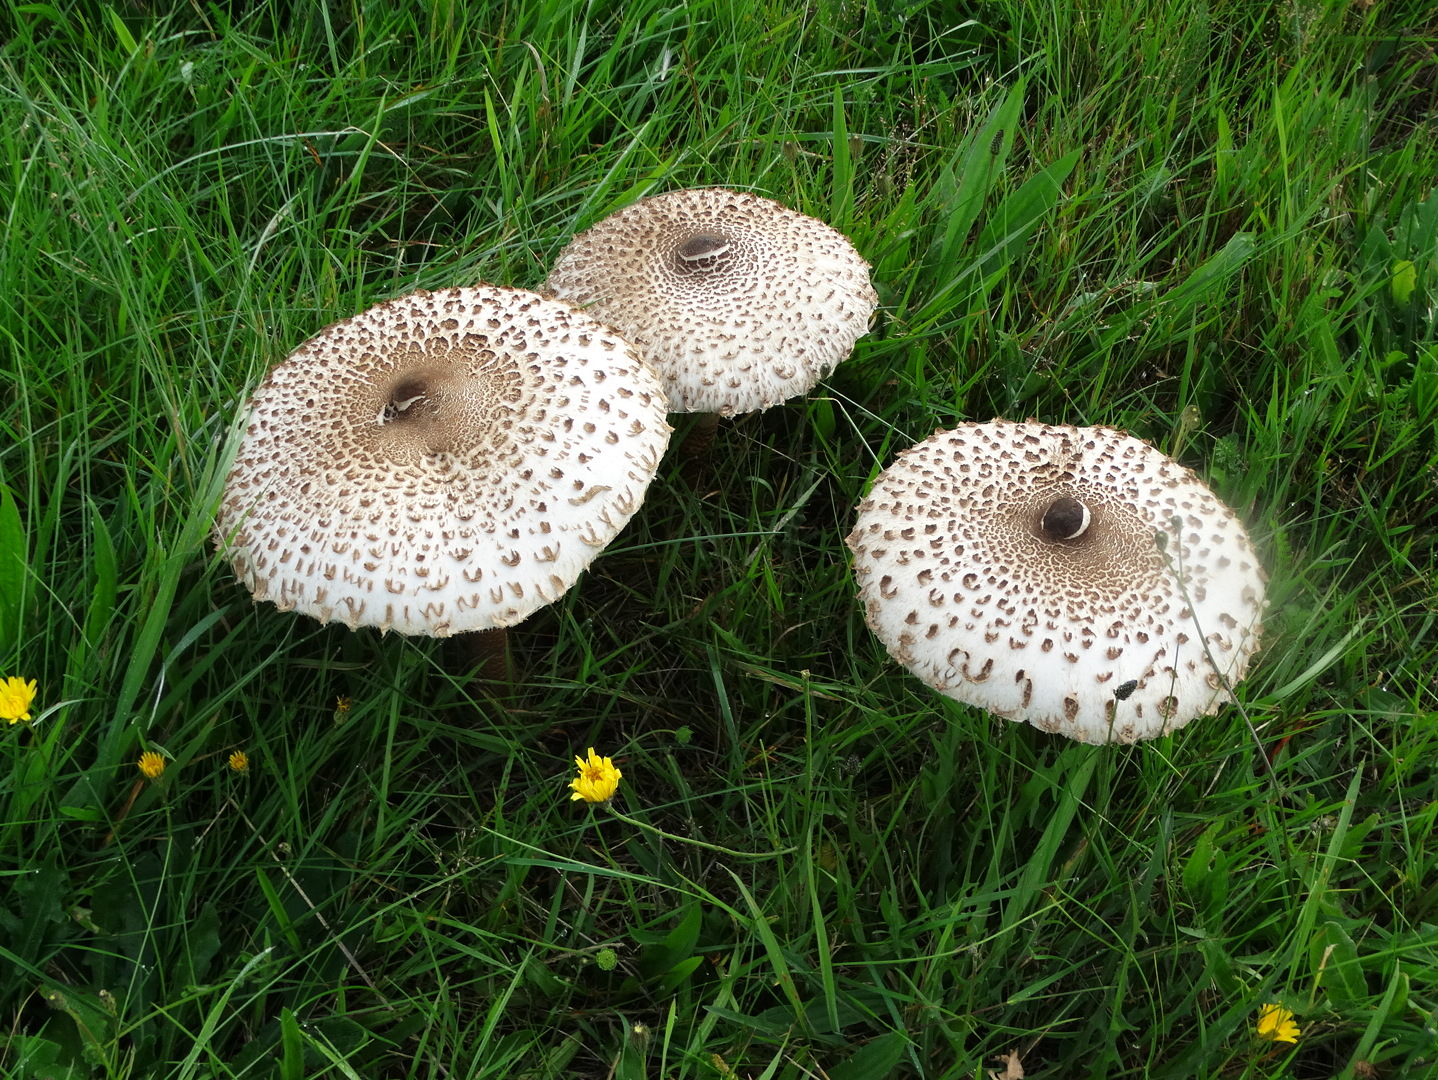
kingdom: Fungi
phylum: Basidiomycota
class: Agaricomycetes
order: Agaricales
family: Agaricaceae
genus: Macrolepiota
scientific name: Macrolepiota procera
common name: stor kæmpeparasolhat
